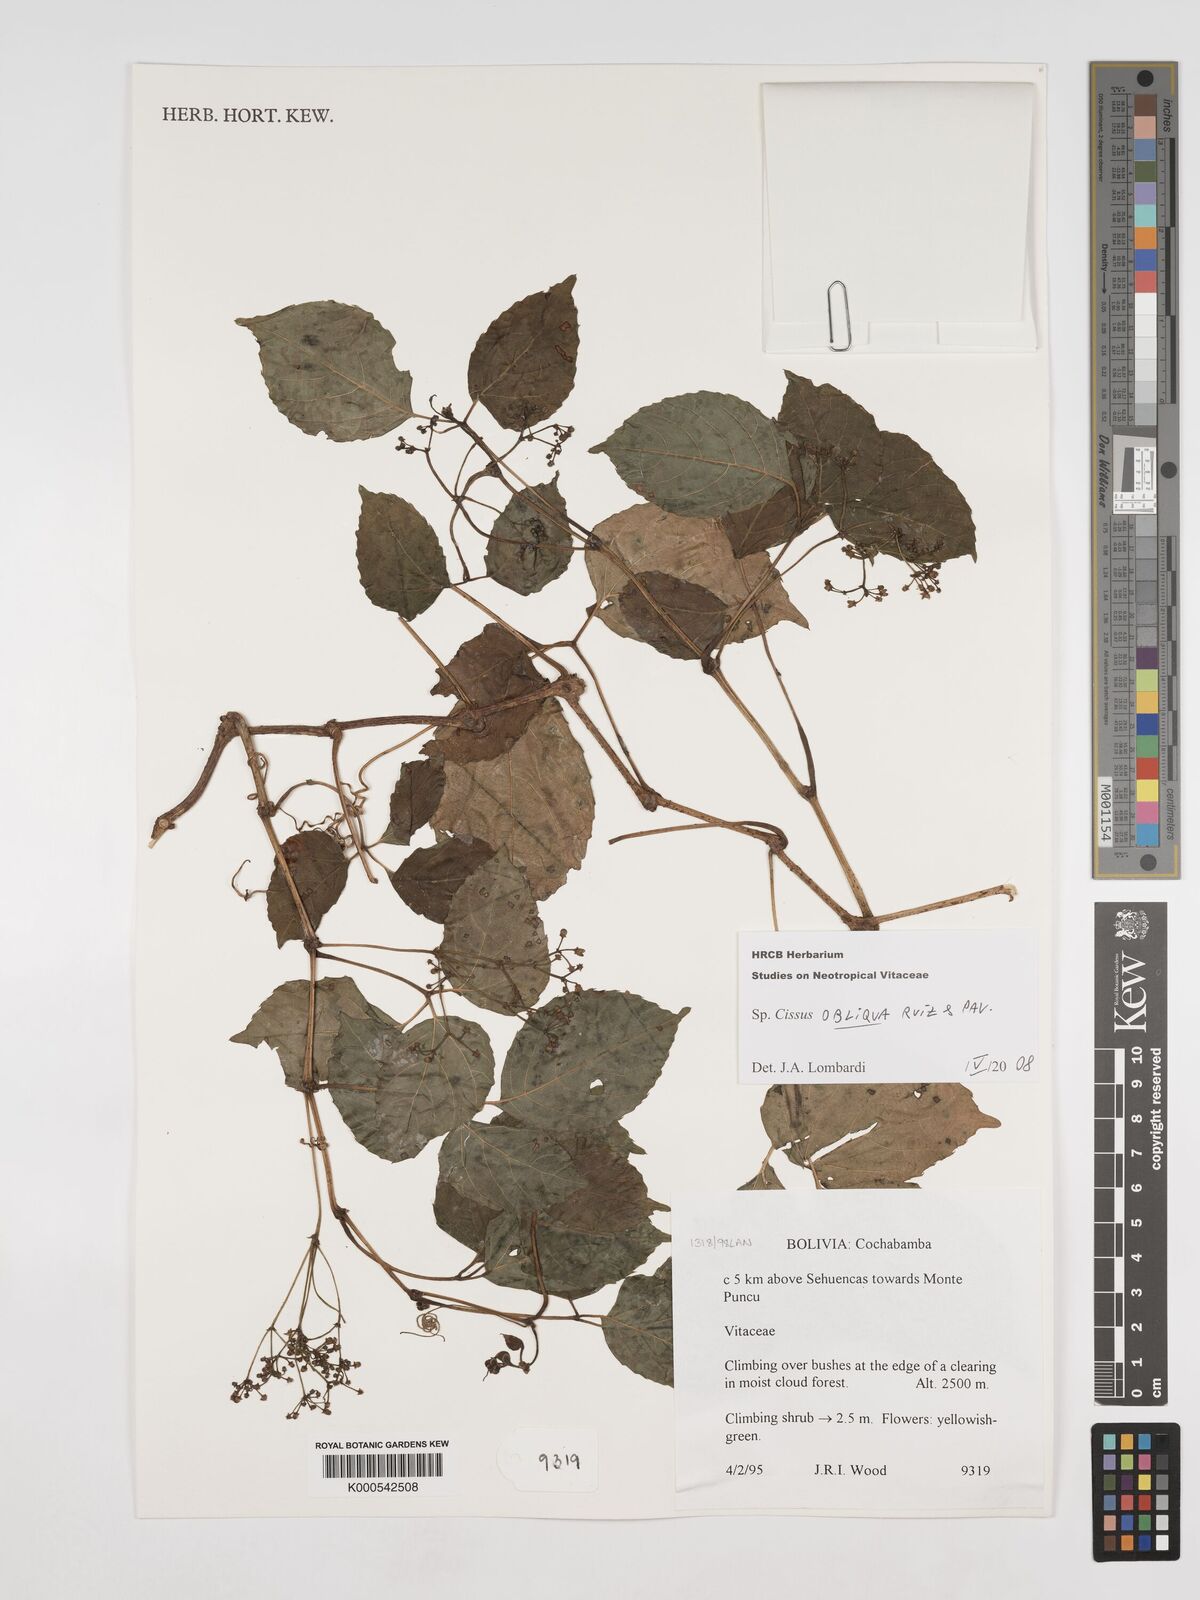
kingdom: Plantae
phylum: Tracheophyta
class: Magnoliopsida
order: Vitales
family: Vitaceae
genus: Cissus
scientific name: Cissus obliqua
